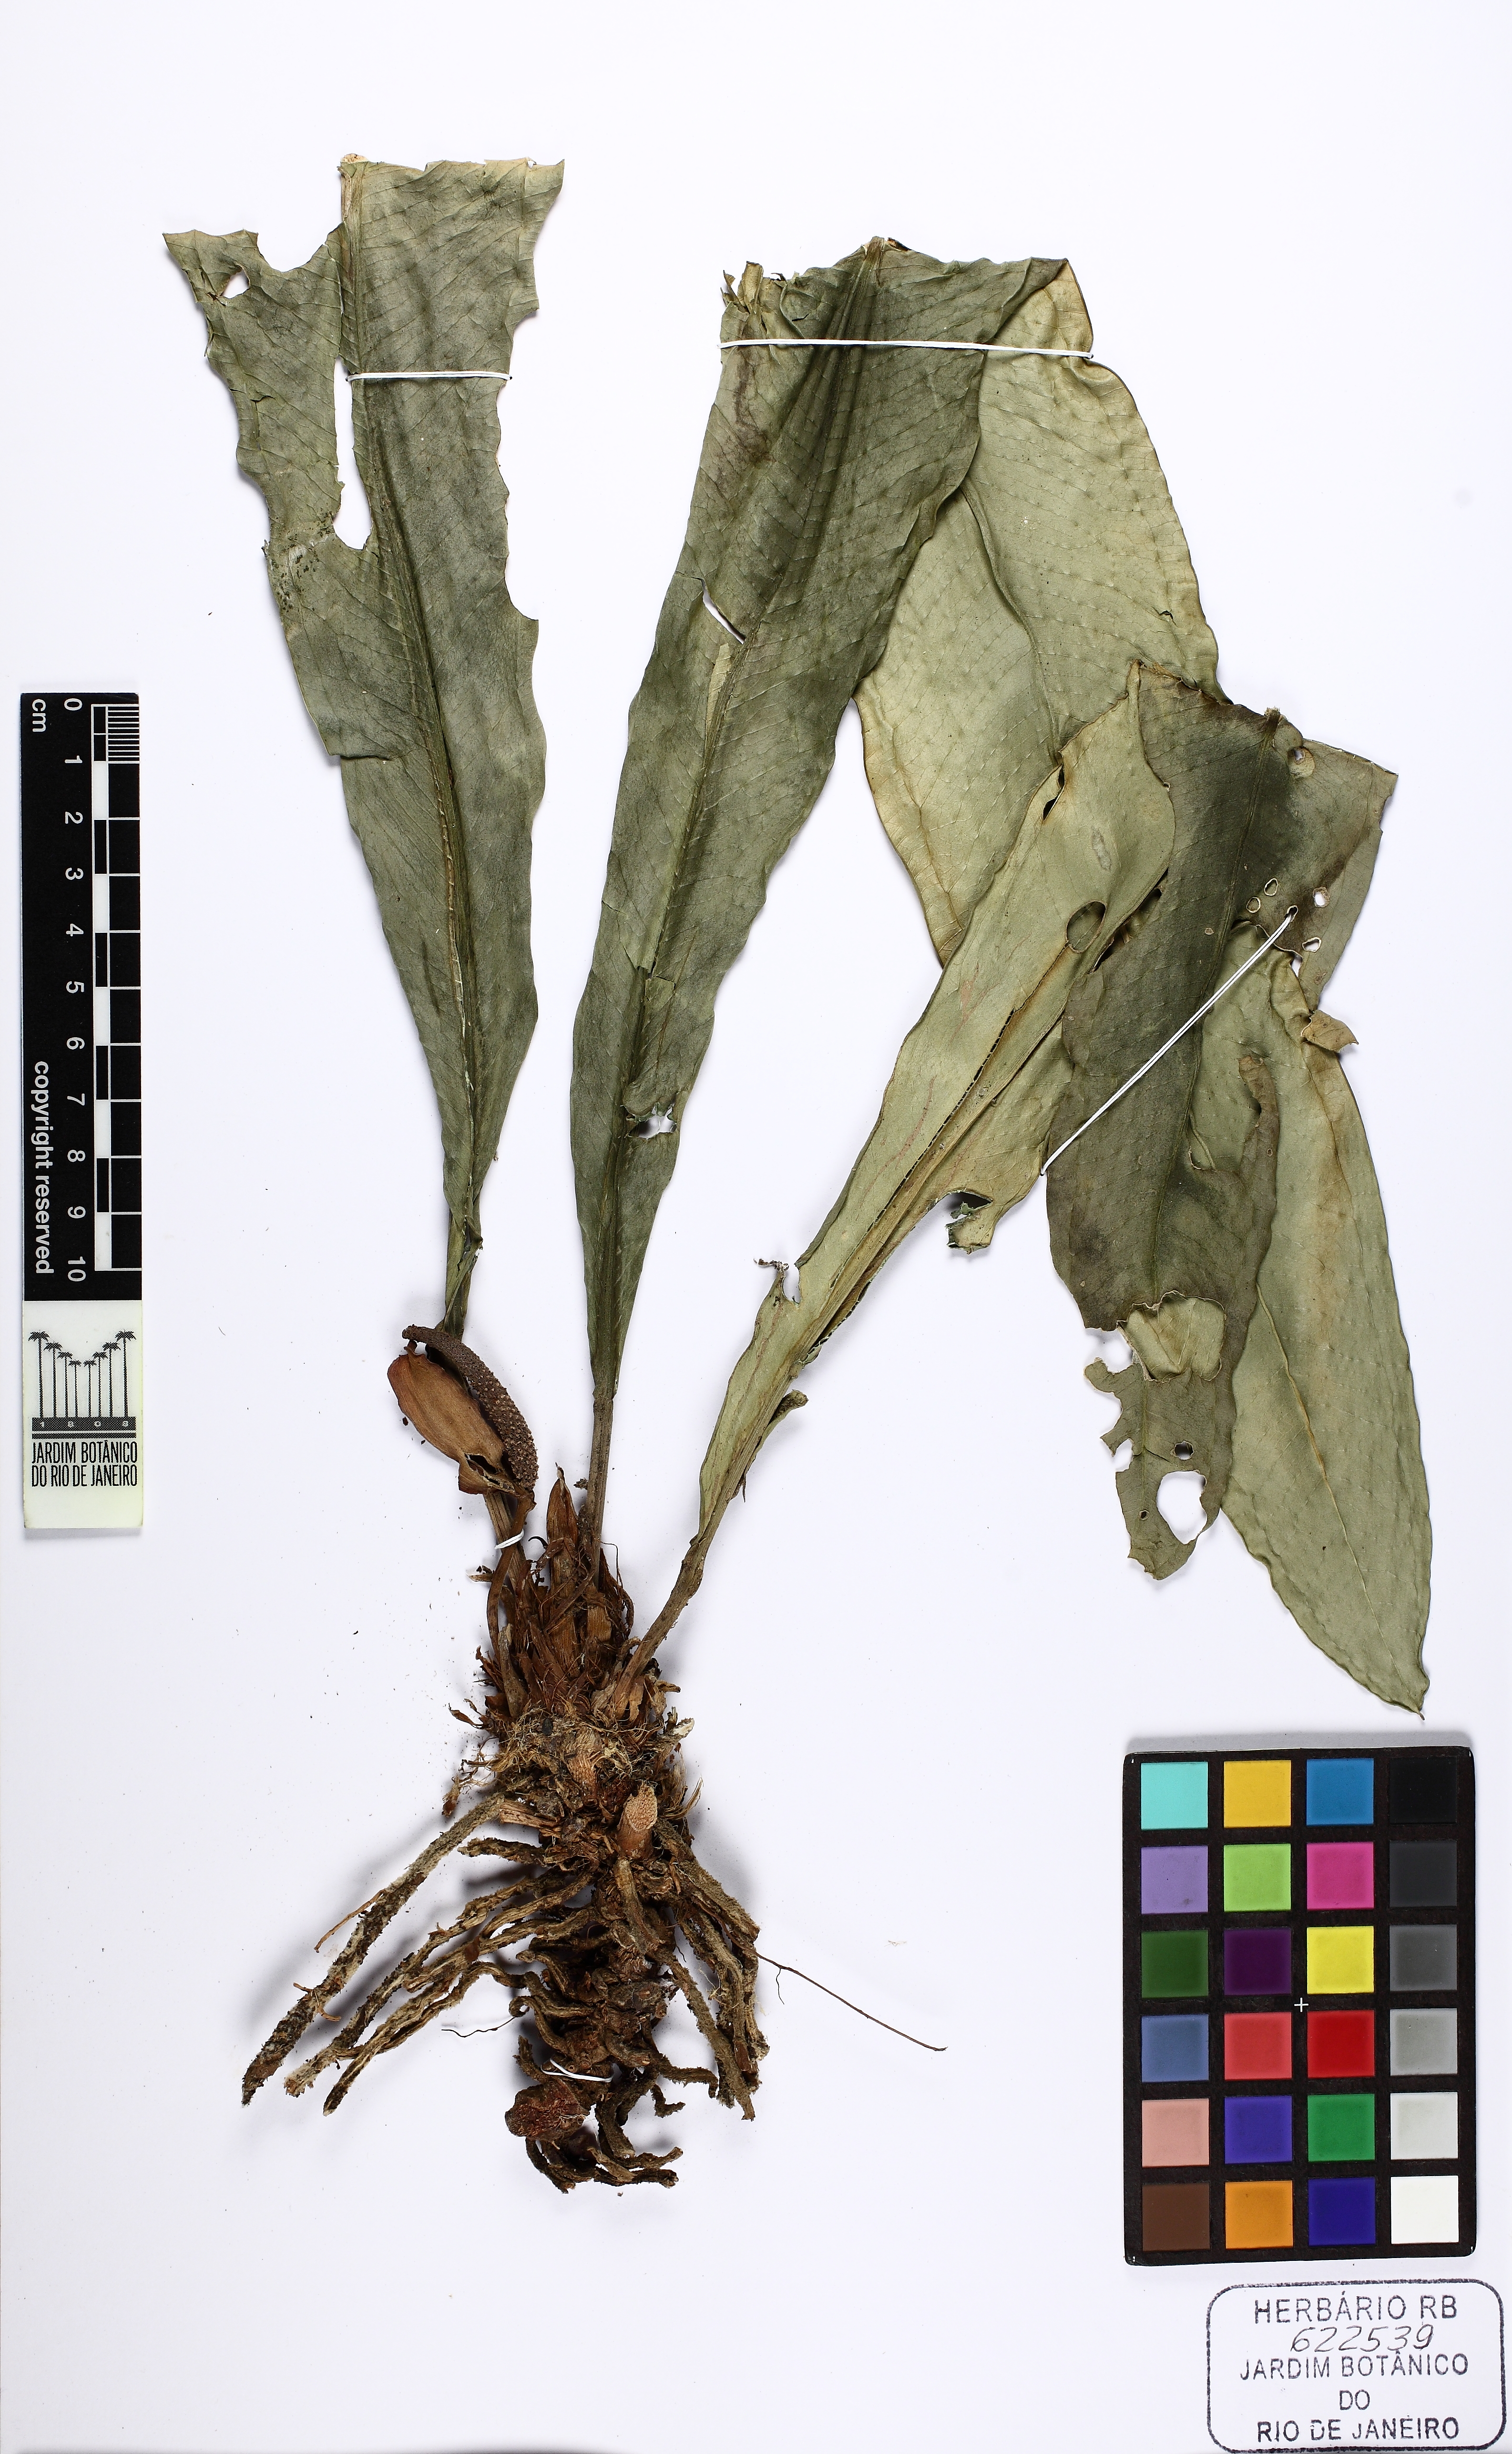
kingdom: Plantae
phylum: Tracheophyta
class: Liliopsida
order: Alismatales
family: Araceae
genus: Anthurium
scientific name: Anthurium martinellii
